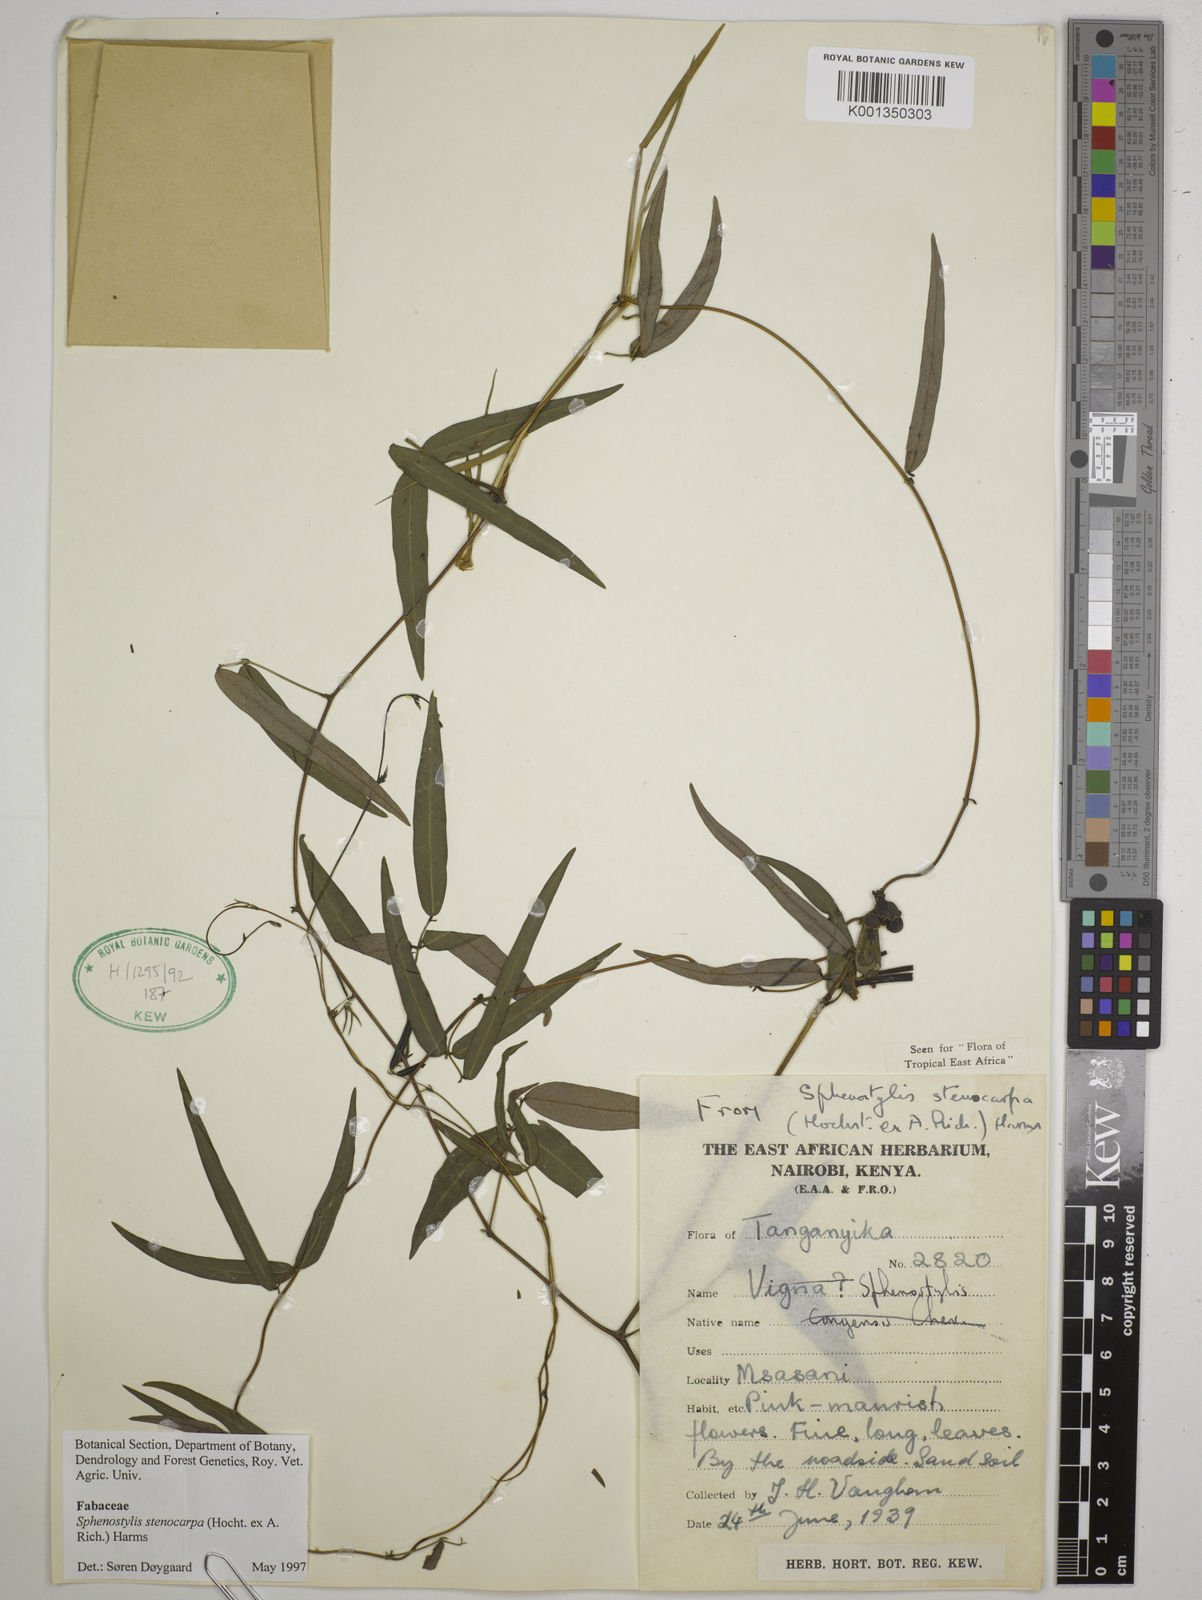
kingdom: Plantae
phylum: Tracheophyta
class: Magnoliopsida
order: Fabales
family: Fabaceae
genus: Sphenostylis
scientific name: Sphenostylis stenocarpa
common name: Yam-pea
